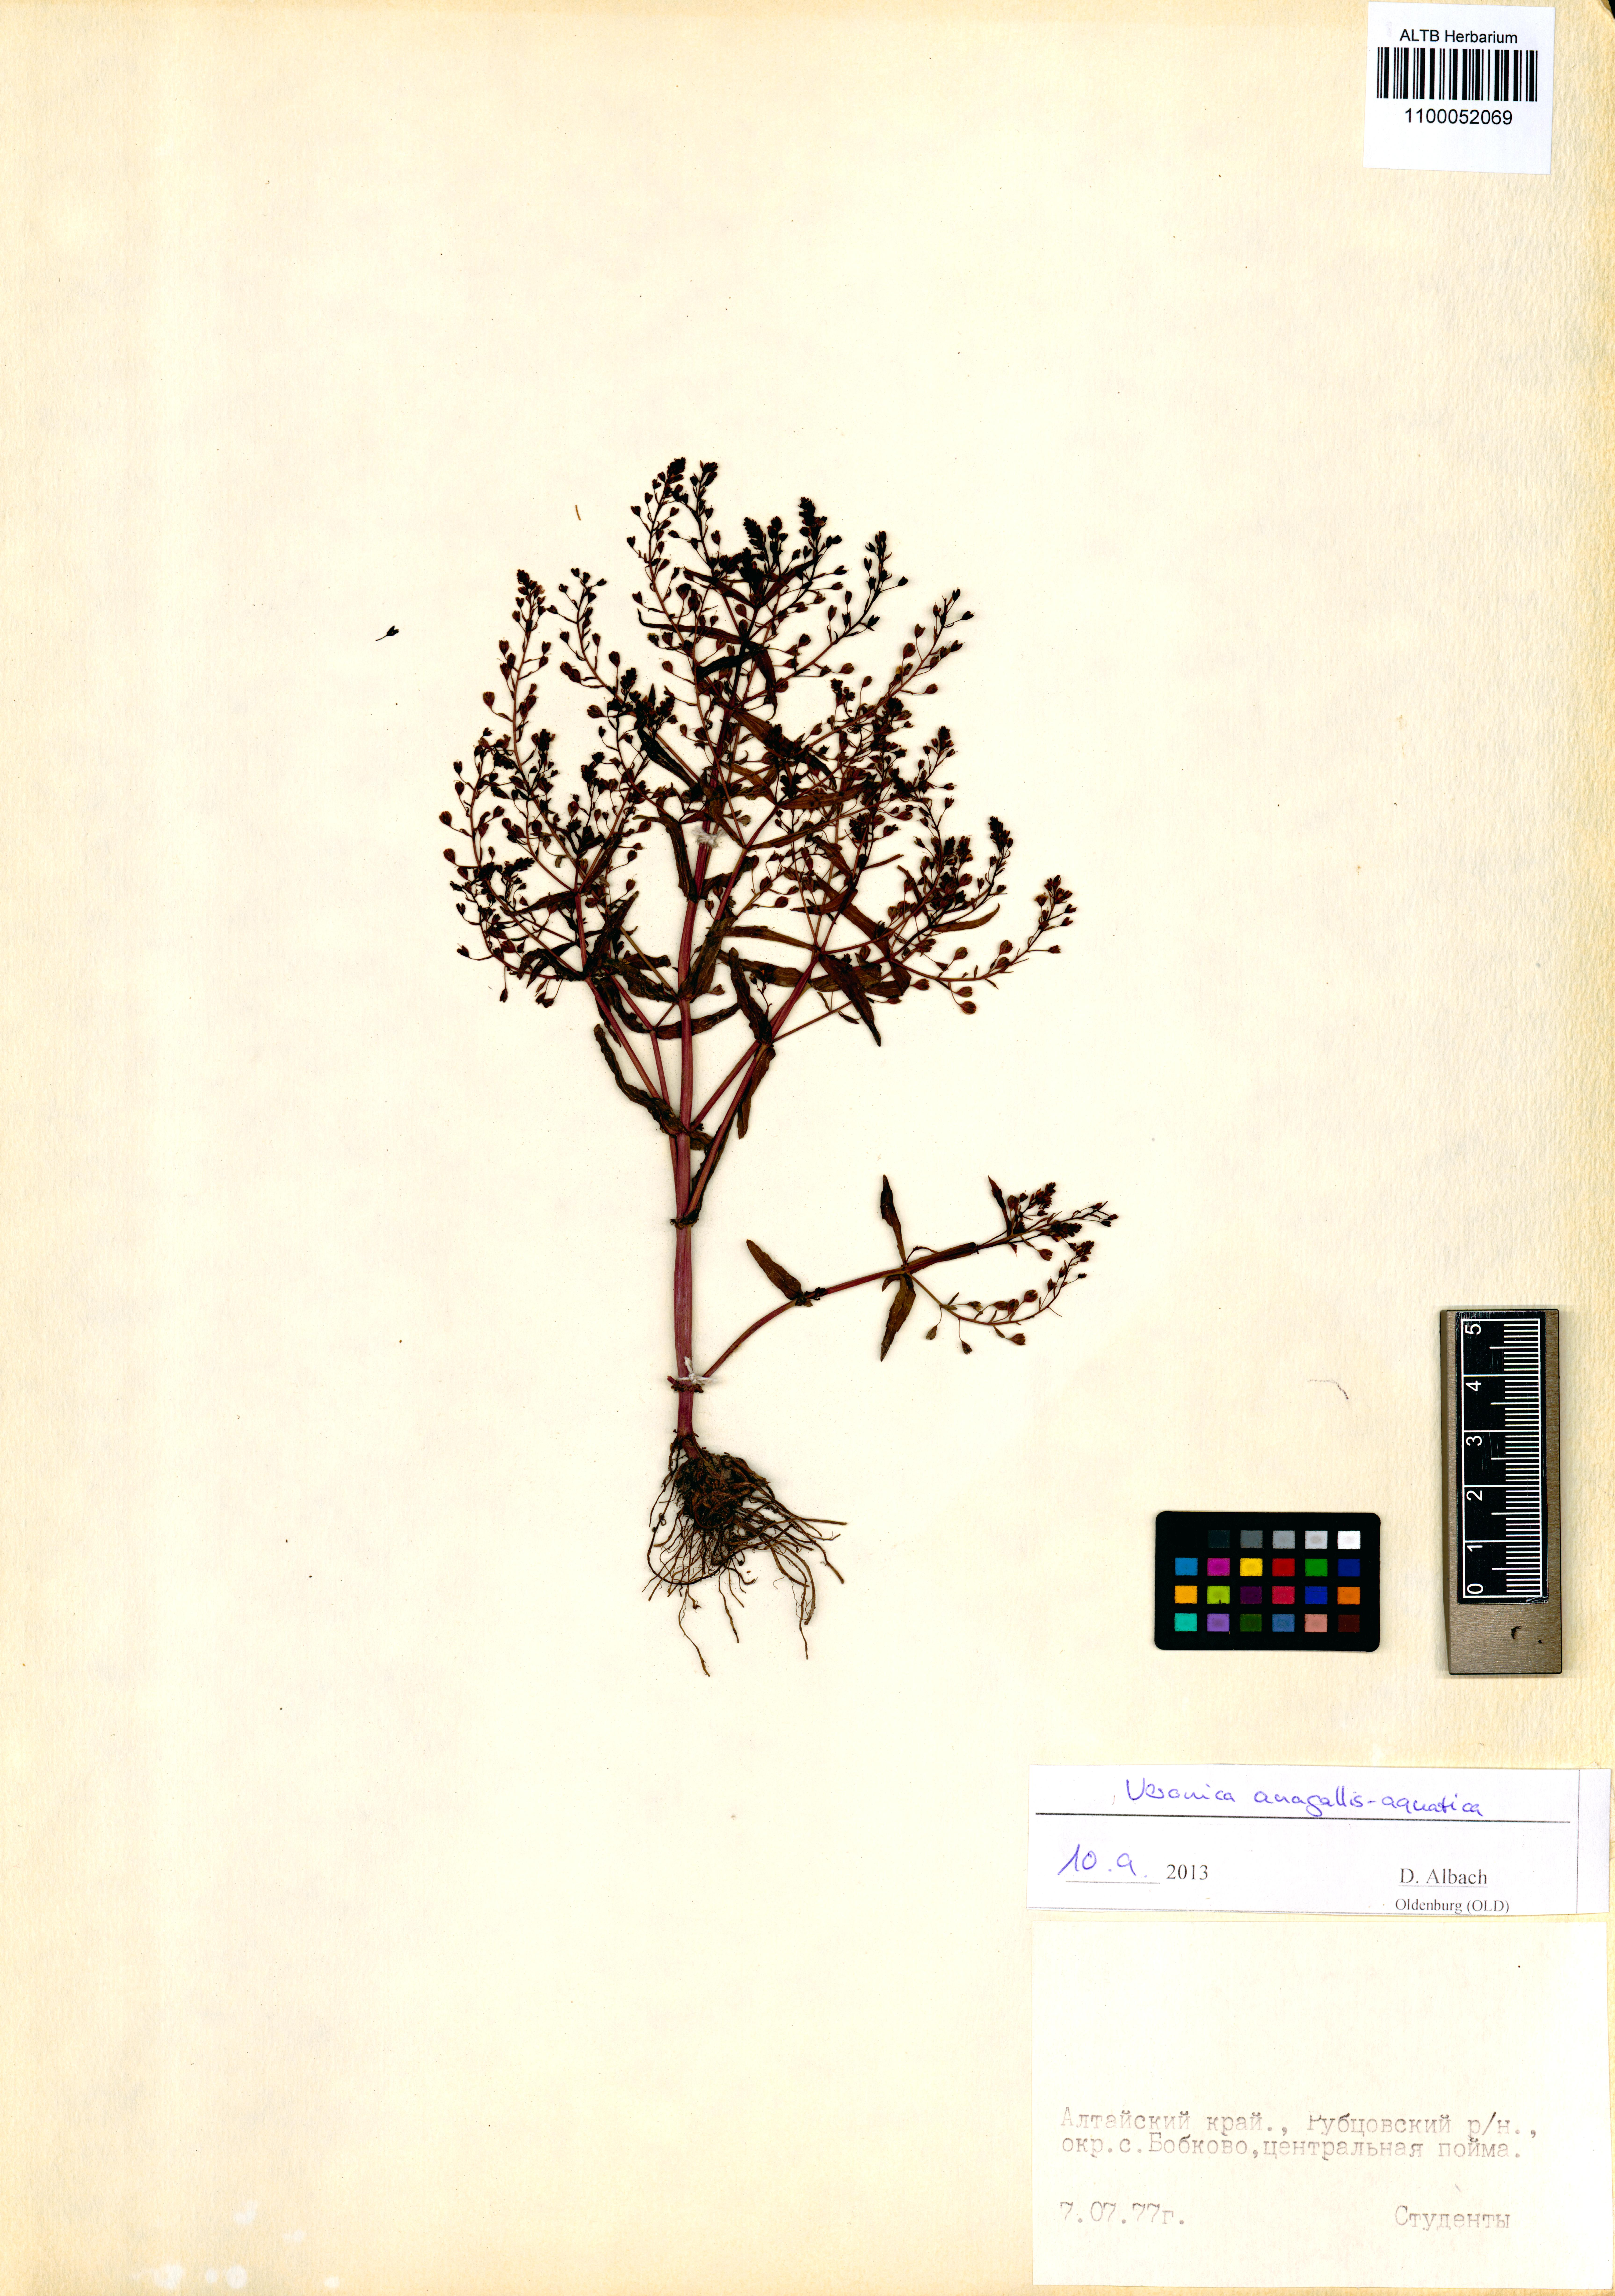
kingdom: Plantae
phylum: Tracheophyta
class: Magnoliopsida
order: Lamiales
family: Plantaginaceae
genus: Veronica
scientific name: Veronica anagallis-aquatica
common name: Water speedwell
